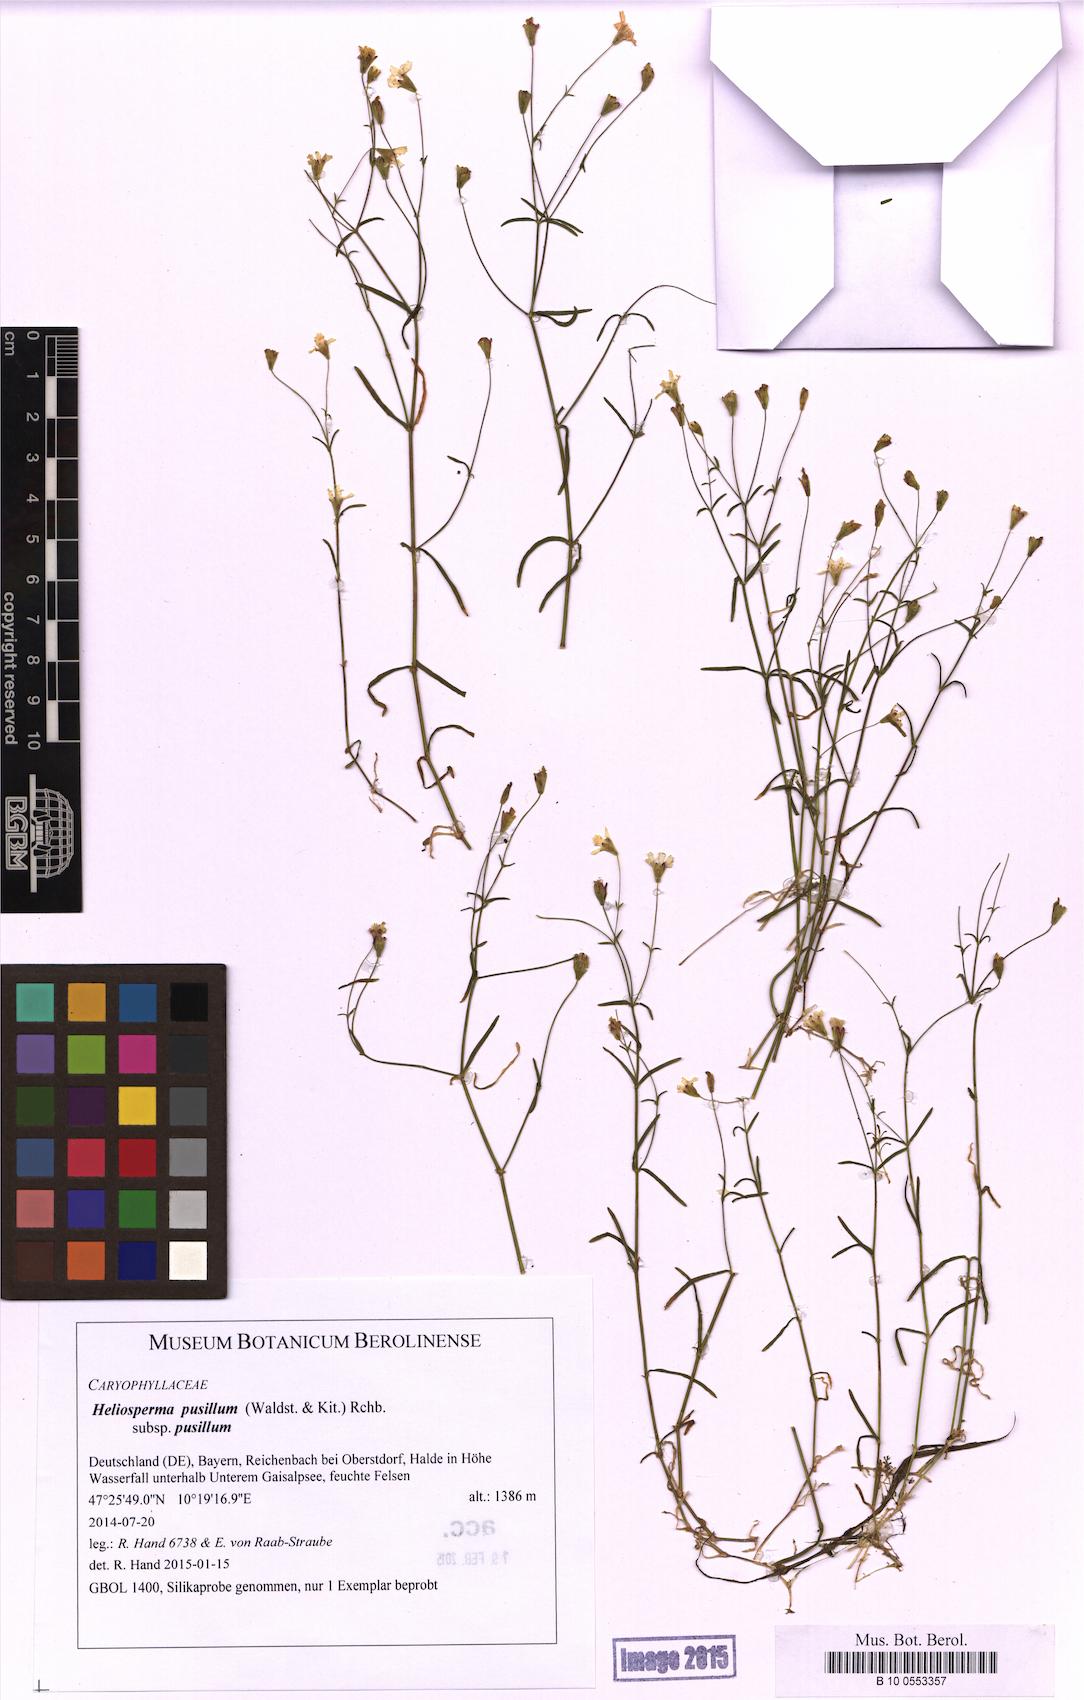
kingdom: Plantae
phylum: Tracheophyta
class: Magnoliopsida
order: Caryophyllales
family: Caryophyllaceae
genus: Heliosperma
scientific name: Heliosperma pusillum
